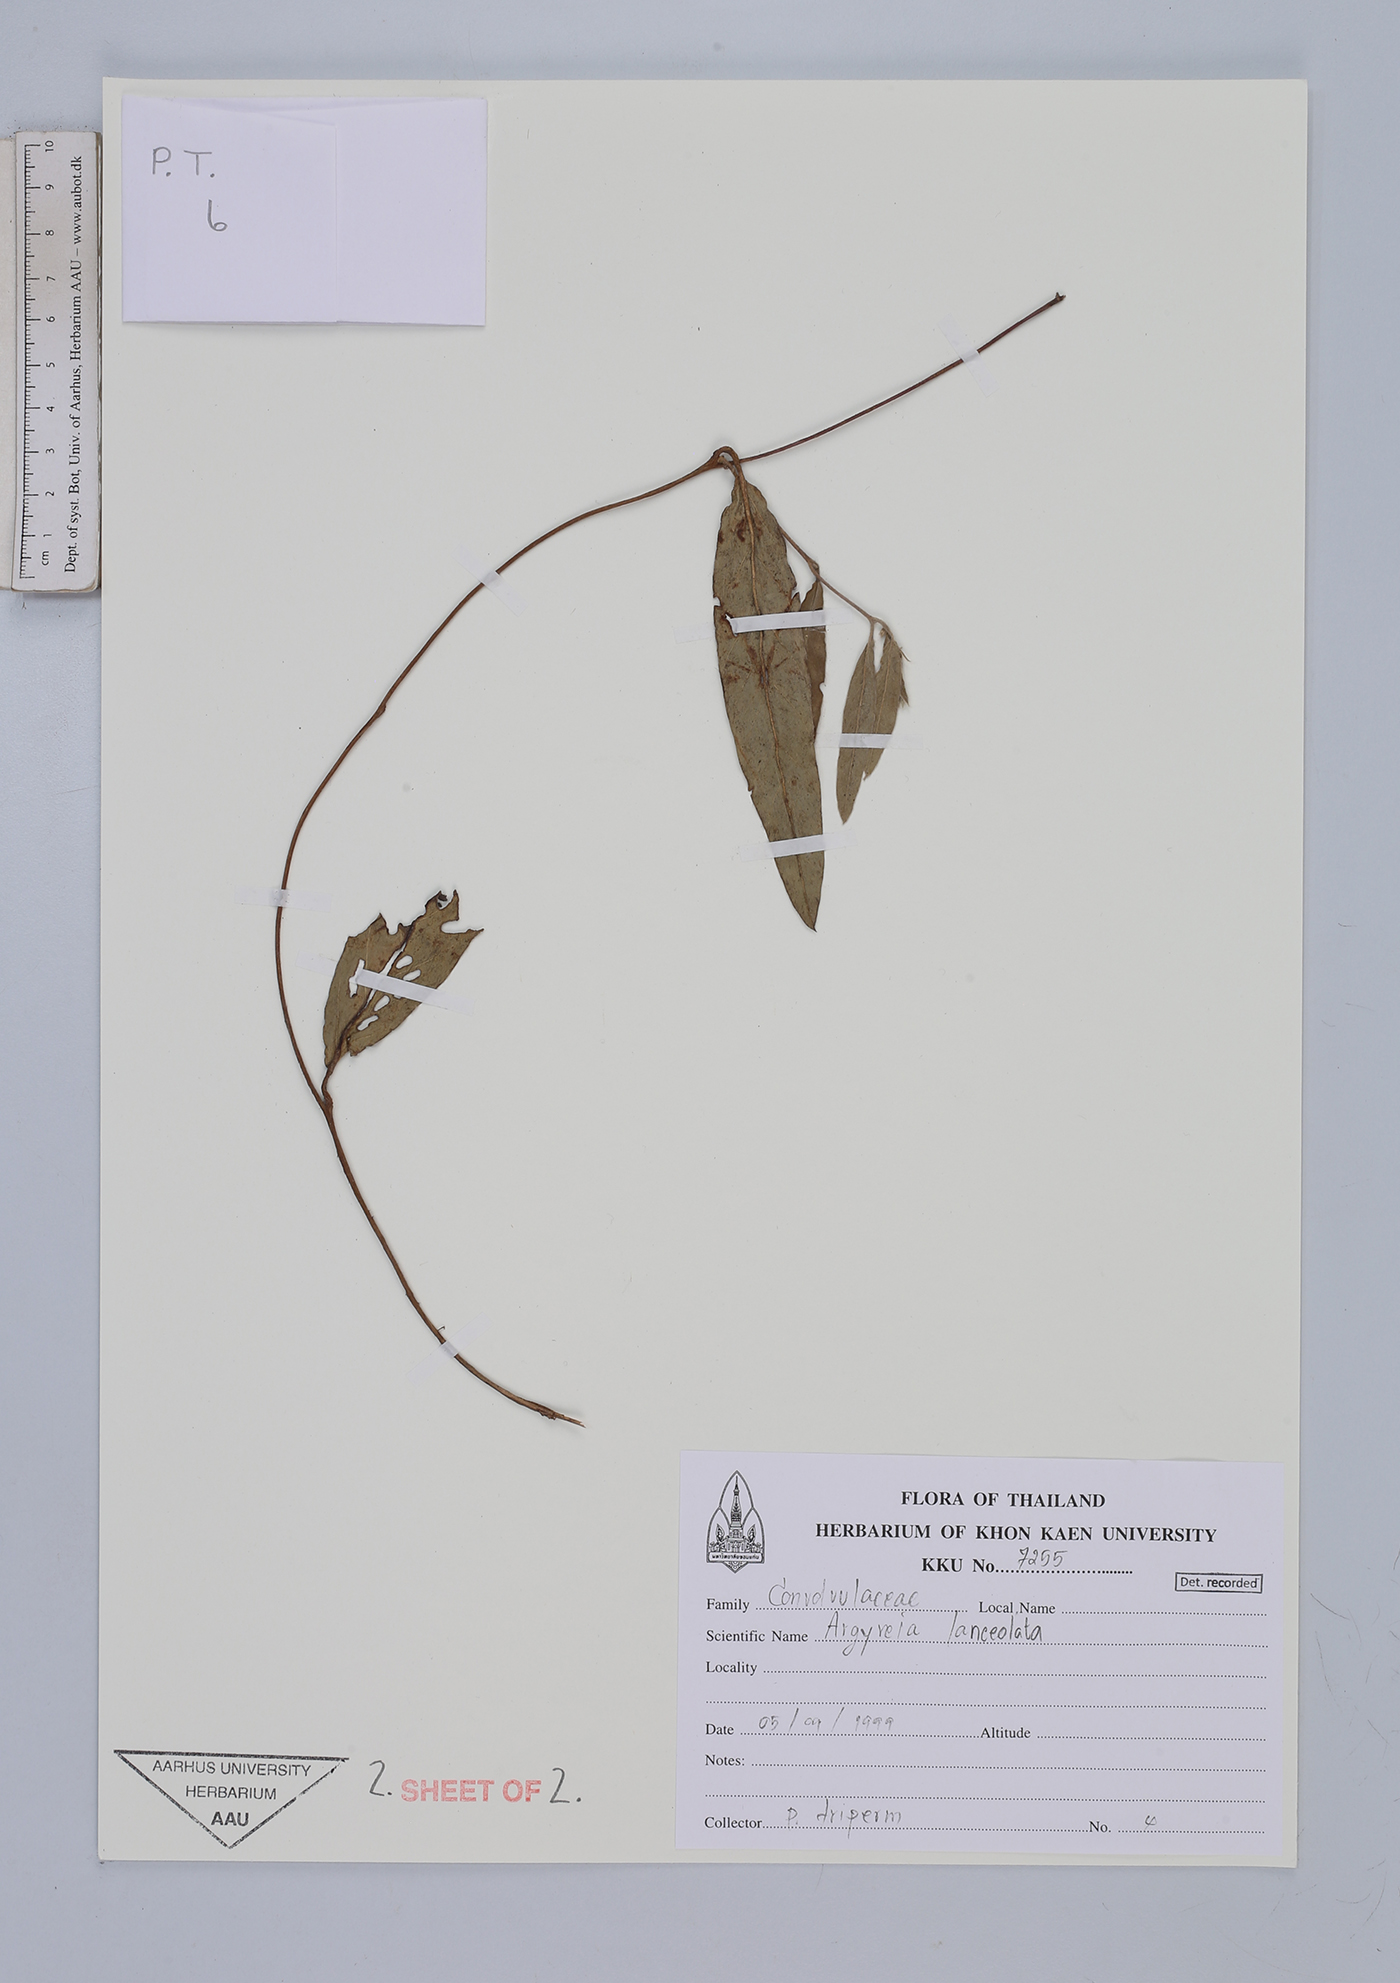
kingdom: Plantae
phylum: Tracheophyta
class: Magnoliopsida
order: Solanales
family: Convolvulaceae
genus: Argyreia
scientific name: Argyreia lanceolata
